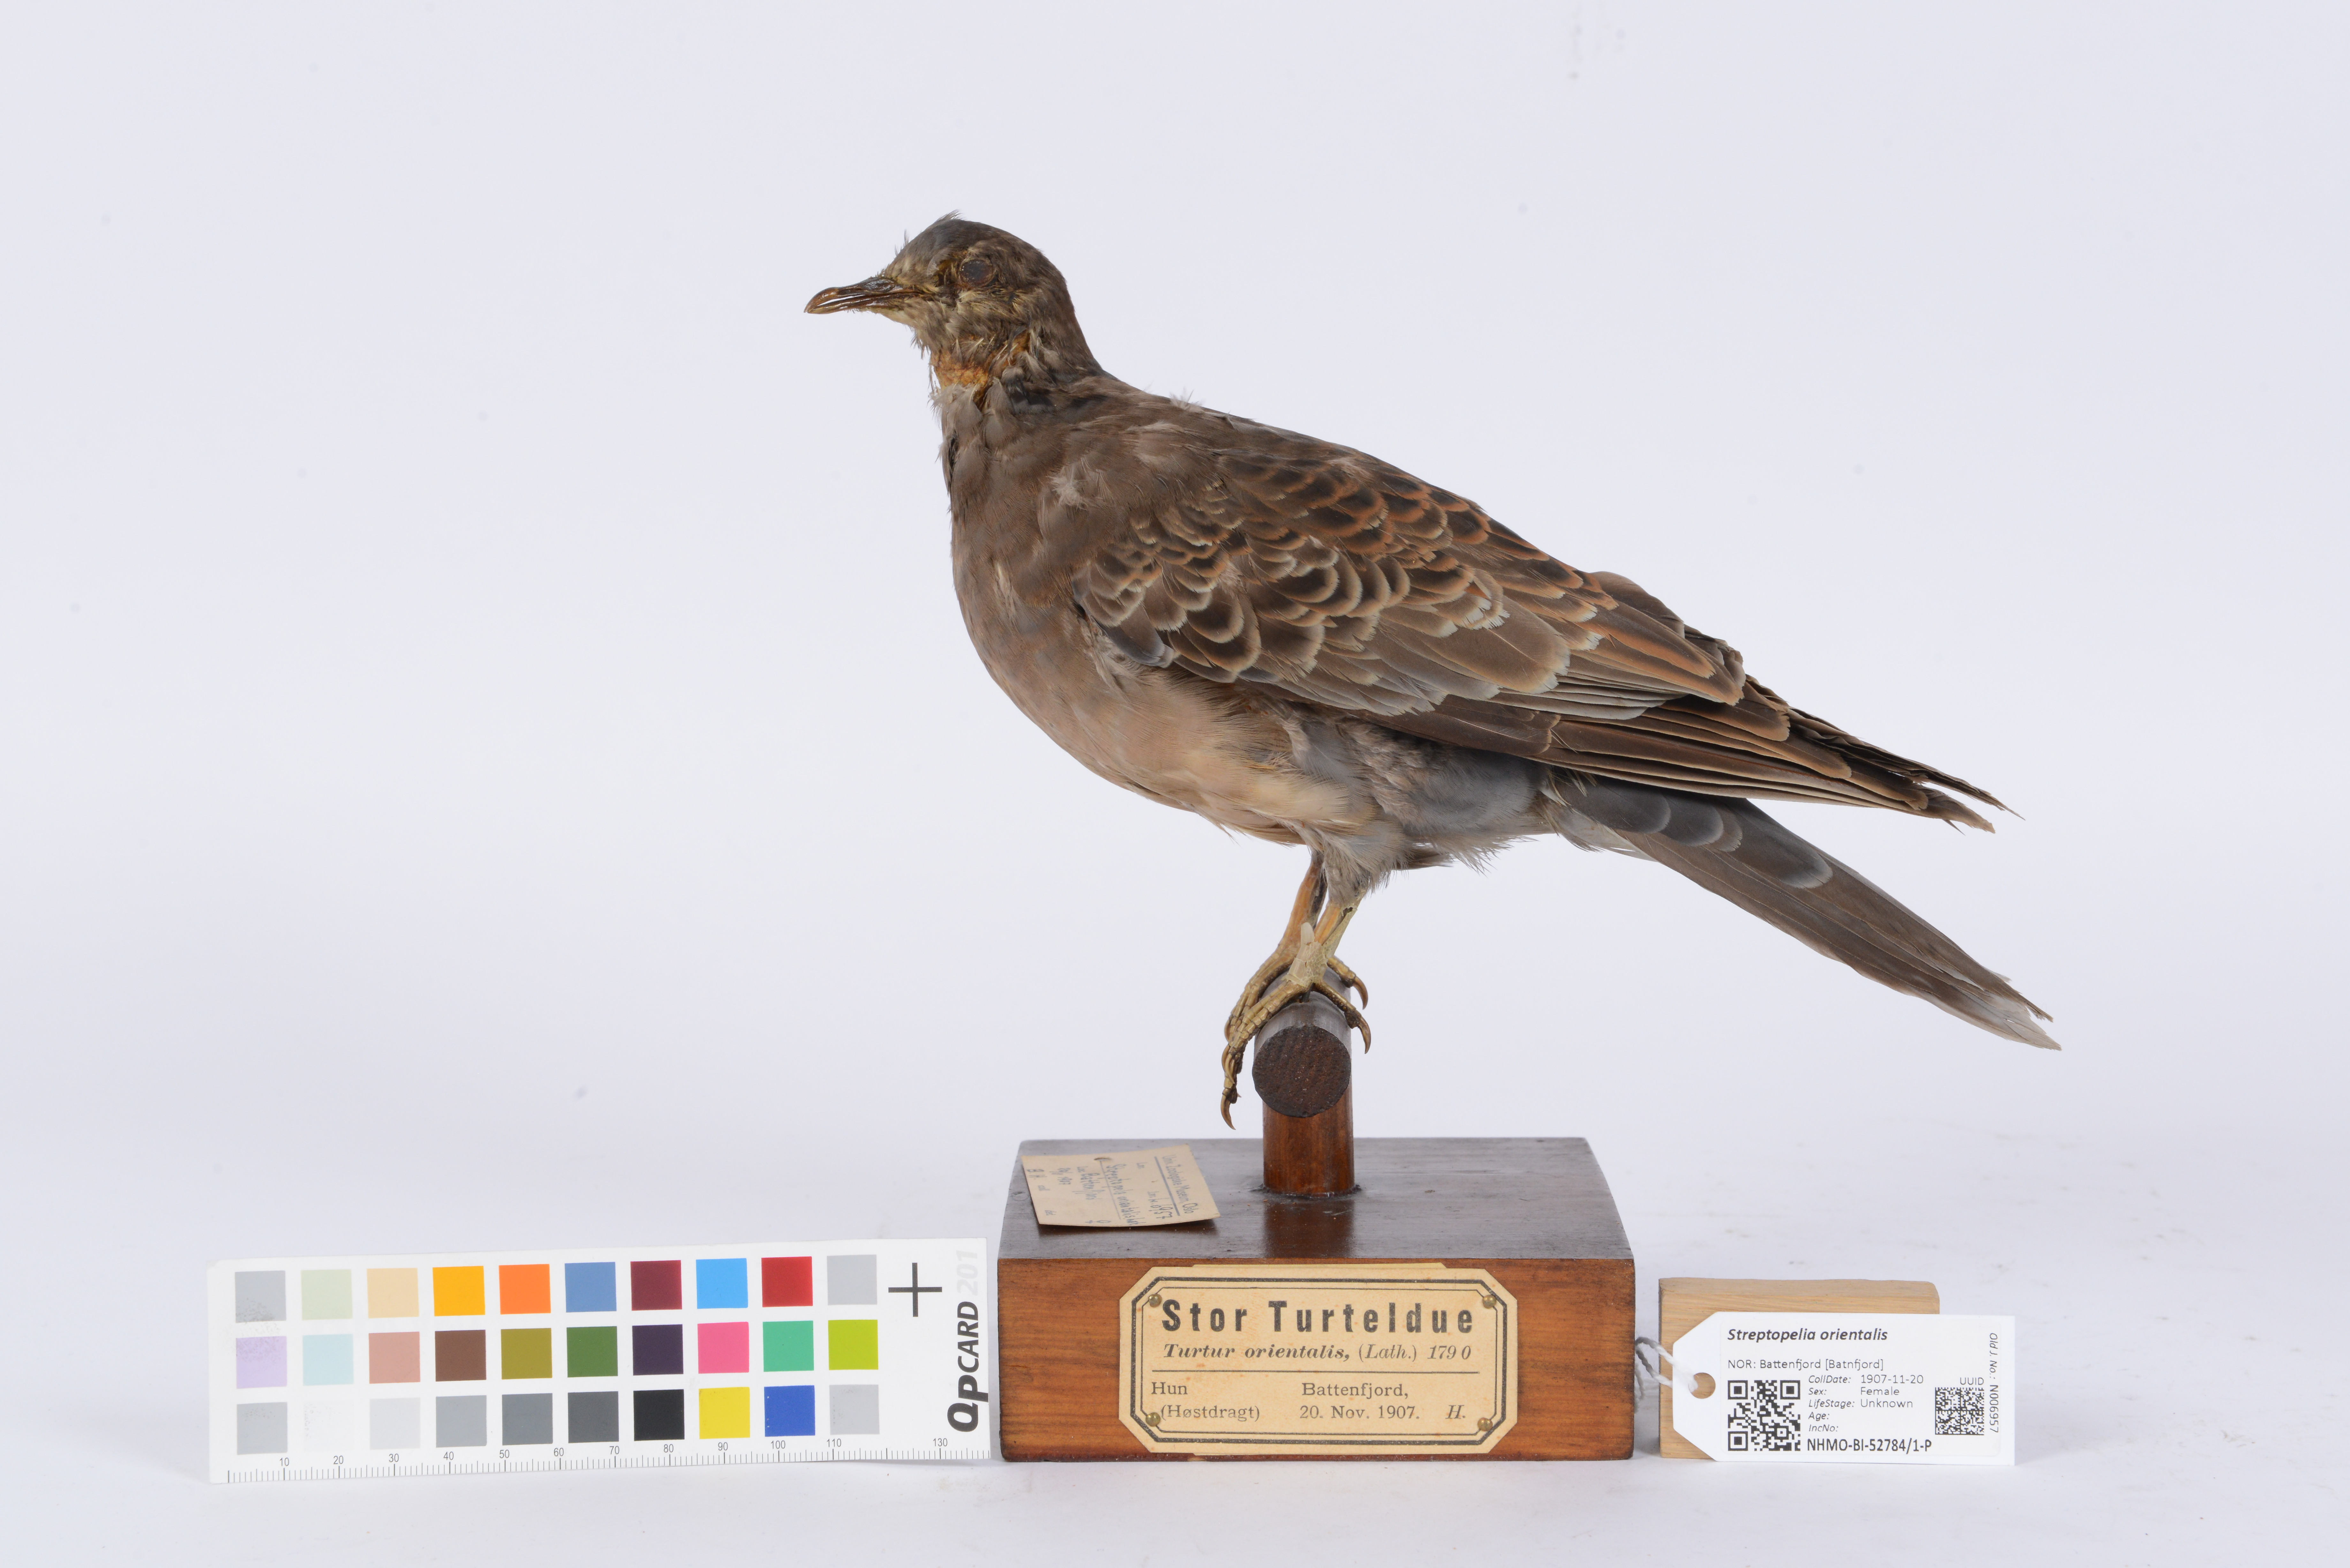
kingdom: Animalia
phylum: Chordata
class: Aves
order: Columbiformes
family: Columbidae
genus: Streptopelia
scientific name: Streptopelia orientalis
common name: Oriental turtle dove
